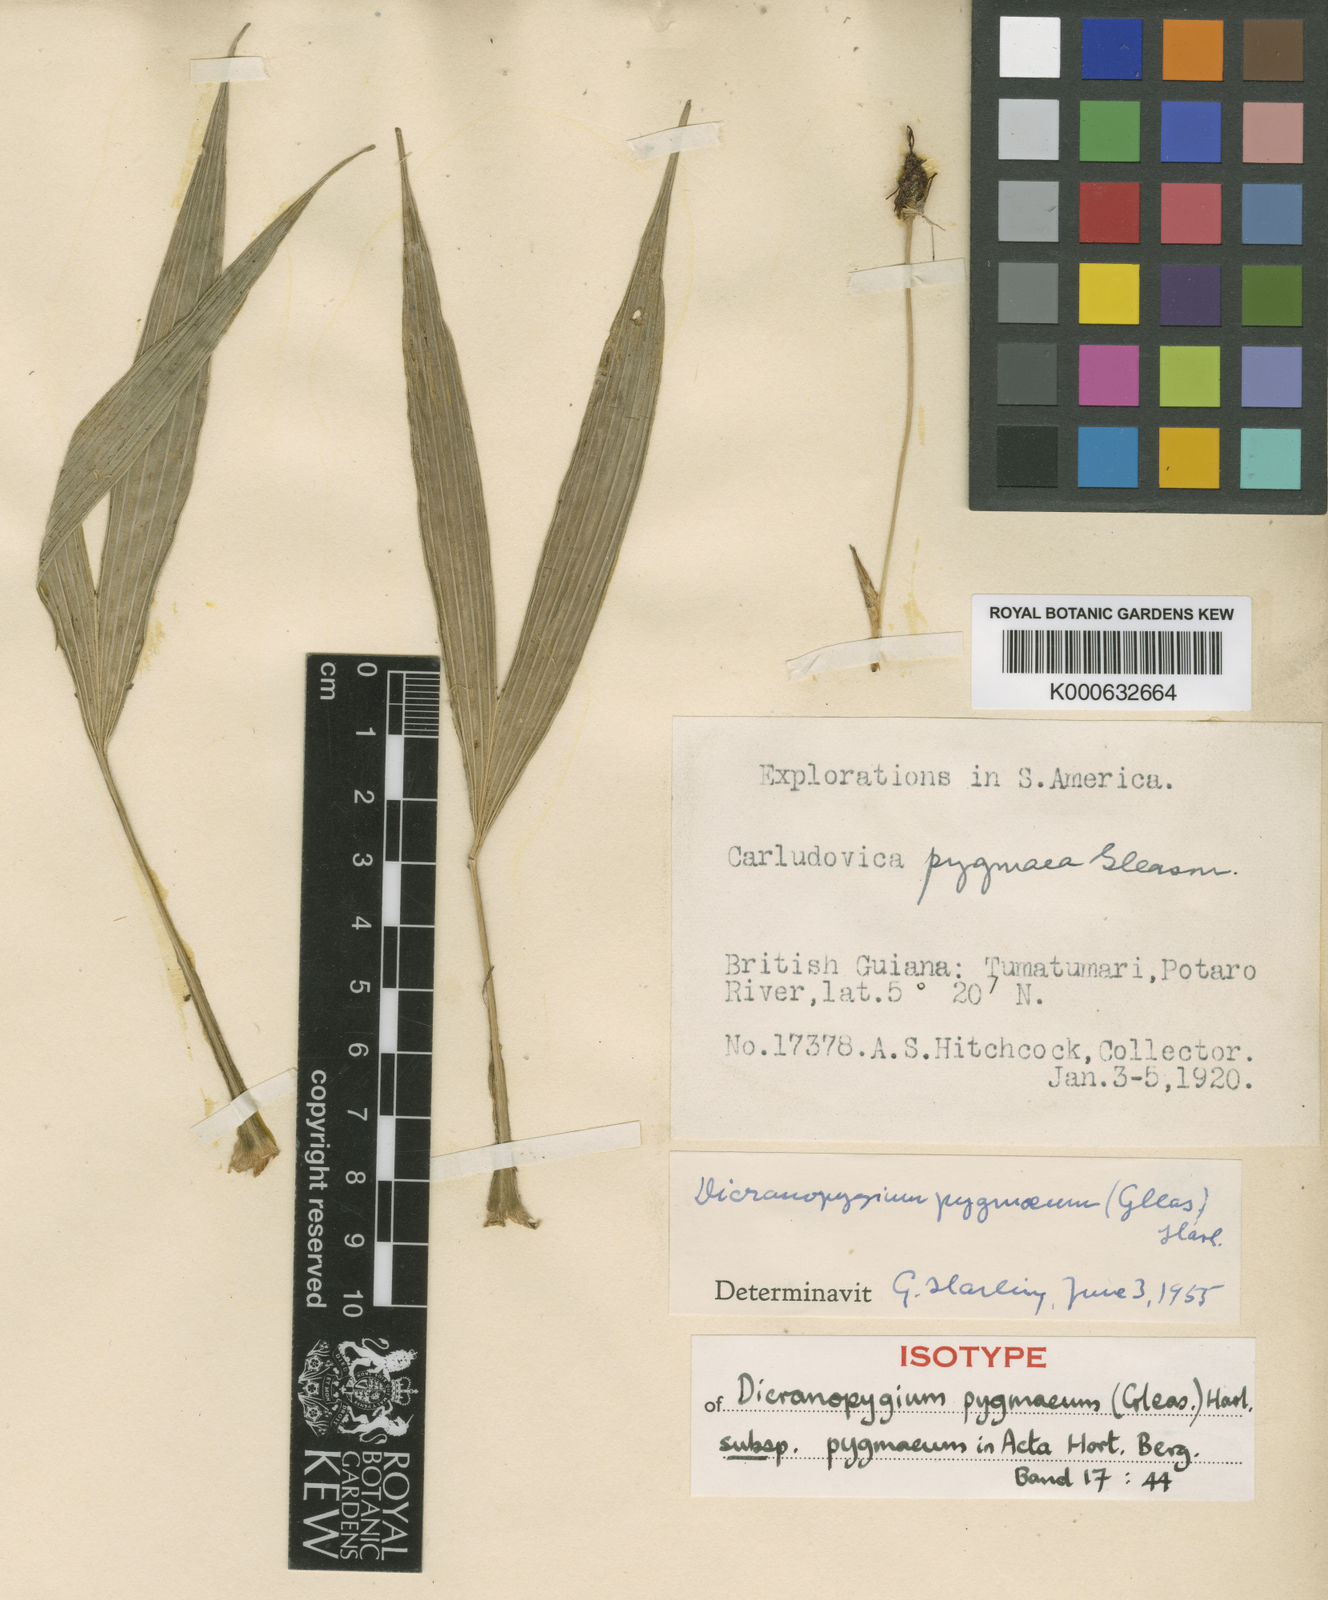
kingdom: Plantae
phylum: Tracheophyta
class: Liliopsida
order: Pandanales
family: Cyclanthaceae
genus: Dicranopygium
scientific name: Dicranopygium pygmaeum
